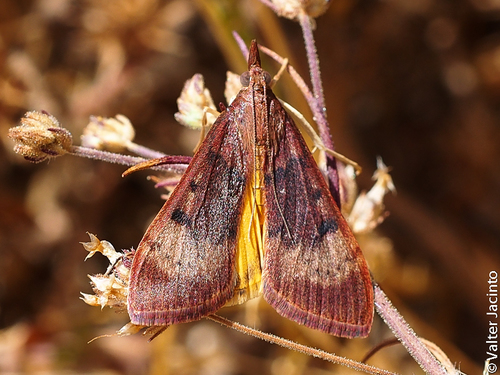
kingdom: Animalia
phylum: Arthropoda
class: Insecta
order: Lepidoptera
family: Crambidae
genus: Uresiphita
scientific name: Uresiphita gilvata
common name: Yellow-underwing pearl
